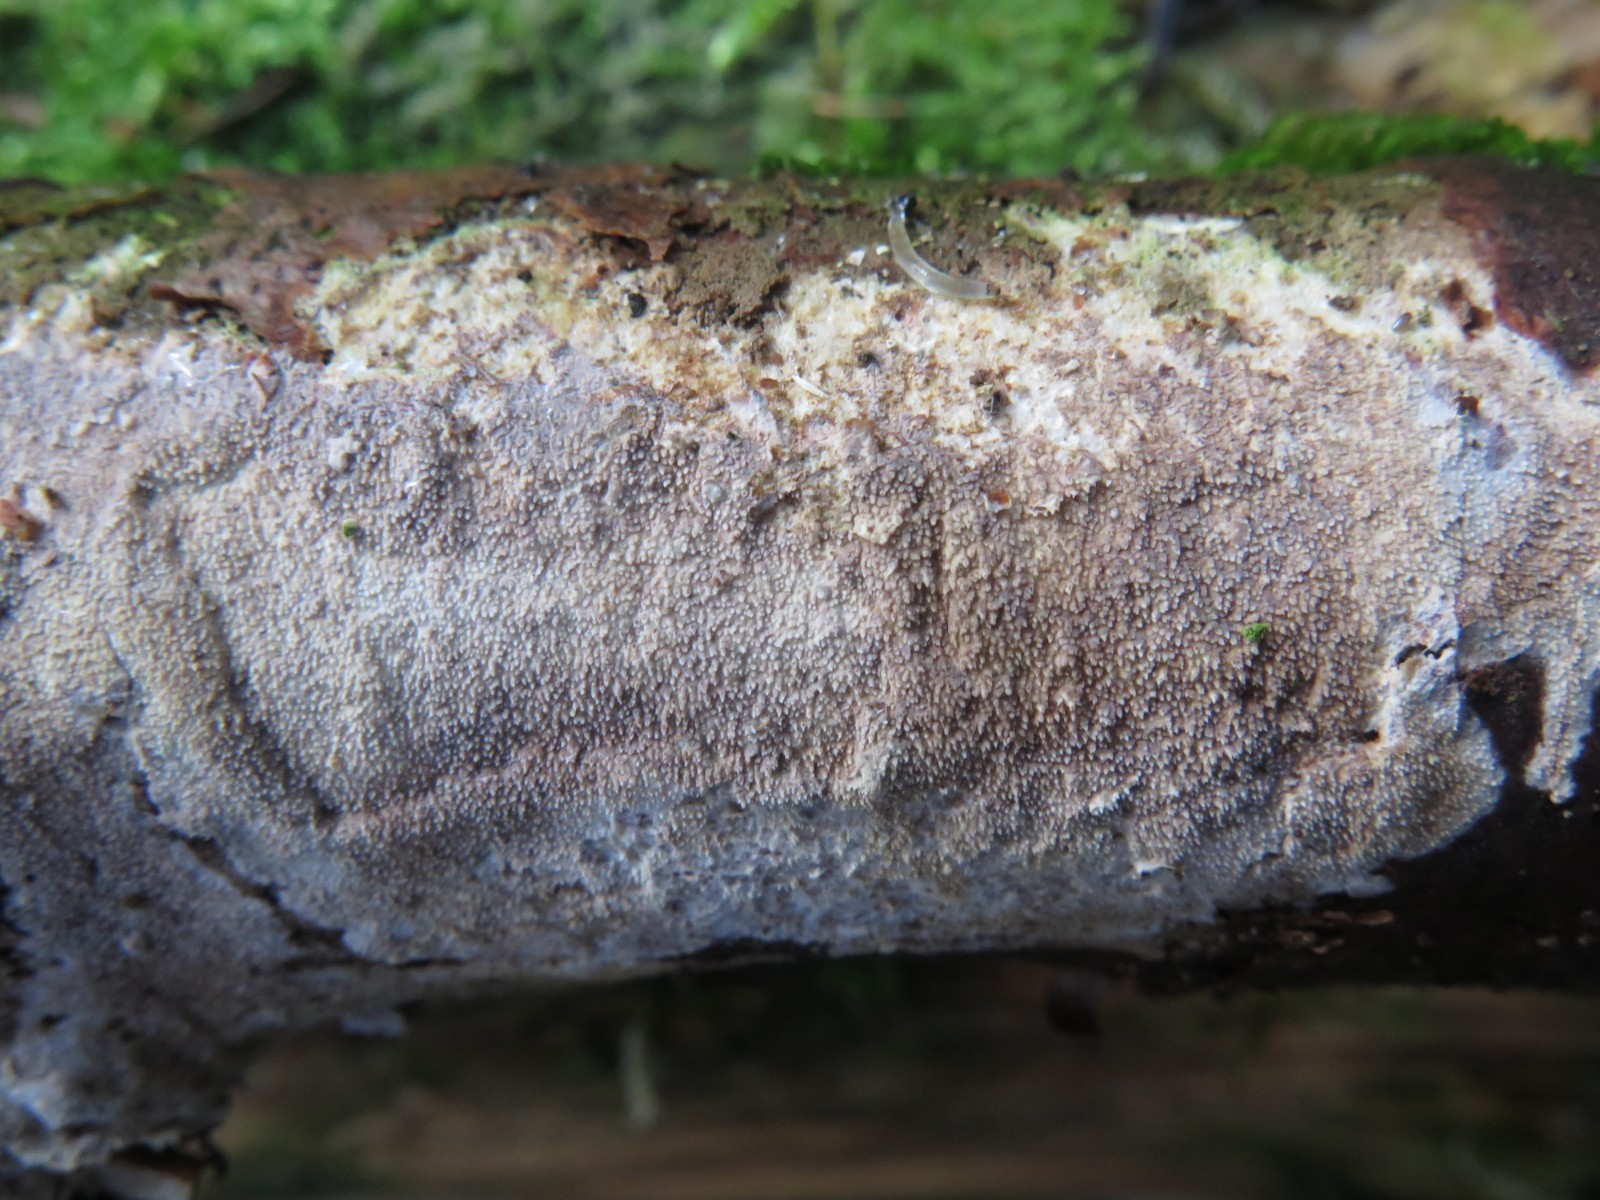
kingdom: Fungi
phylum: Basidiomycota
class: Agaricomycetes
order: Hymenochaetales
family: Rickenellaceae
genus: Resinicium
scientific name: Resinicium bicolor
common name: almindelig vokstand
